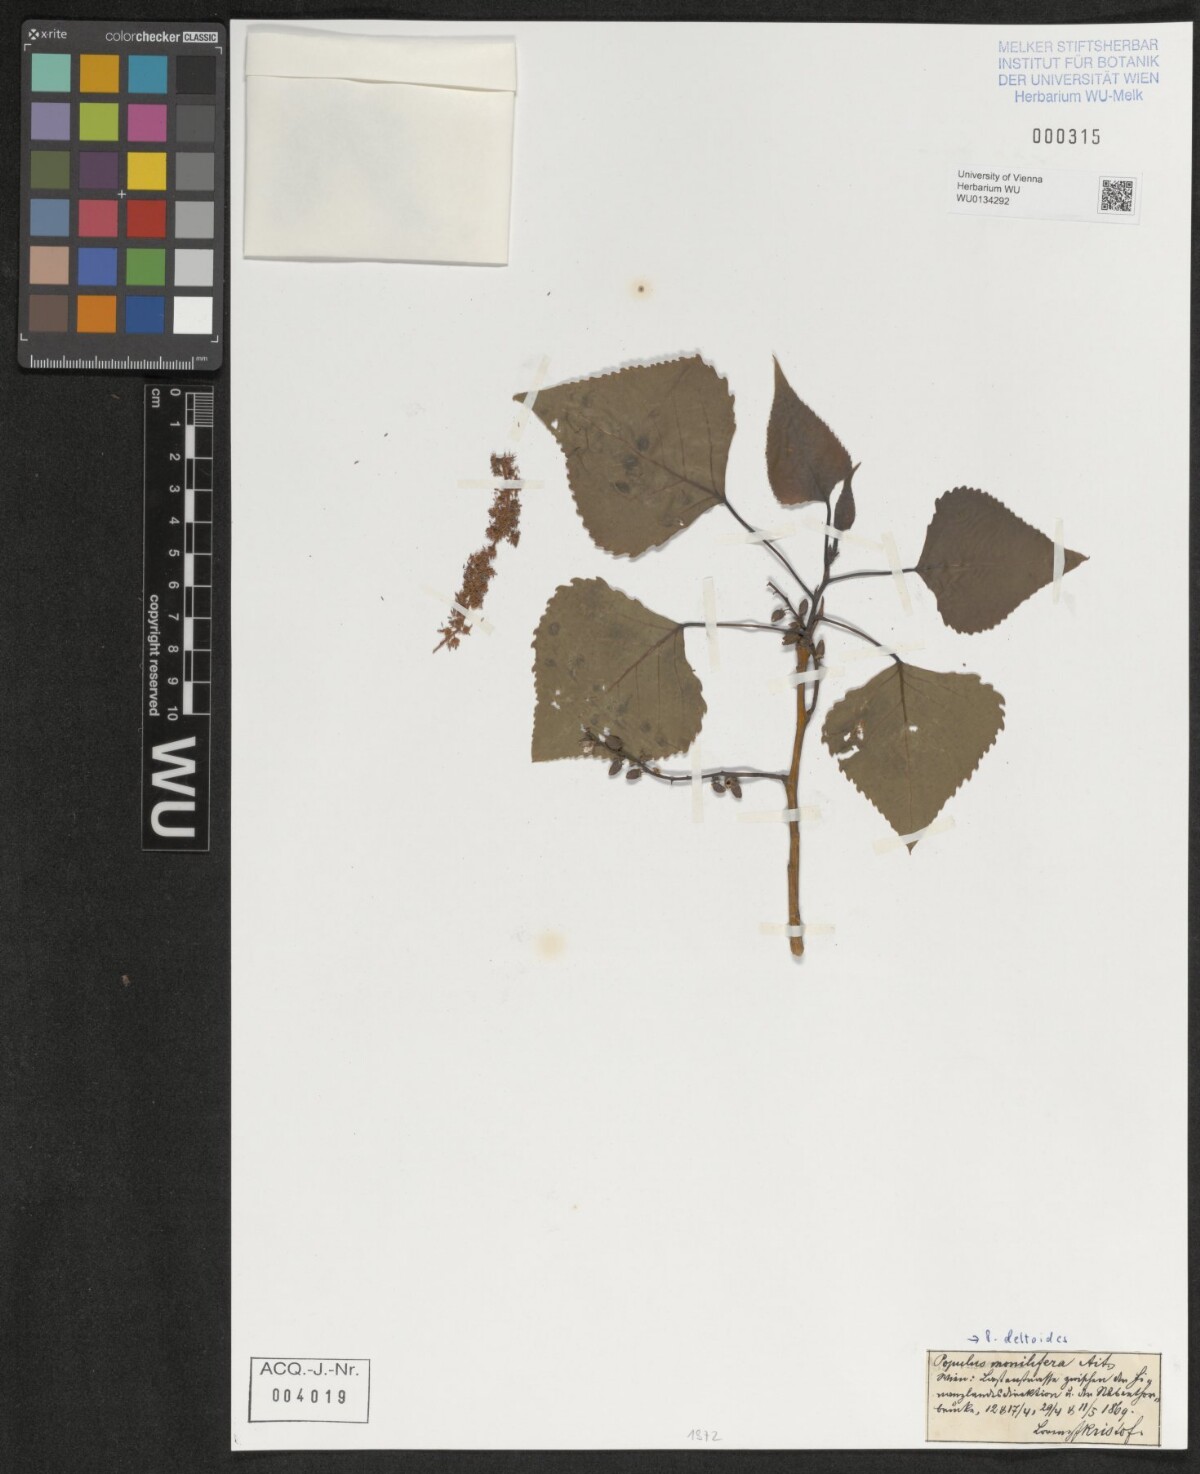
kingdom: Plantae
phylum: Tracheophyta
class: Magnoliopsida
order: Malpighiales
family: Salicaceae
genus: Populus
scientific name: Populus deltoides
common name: Eastern cottonwood
